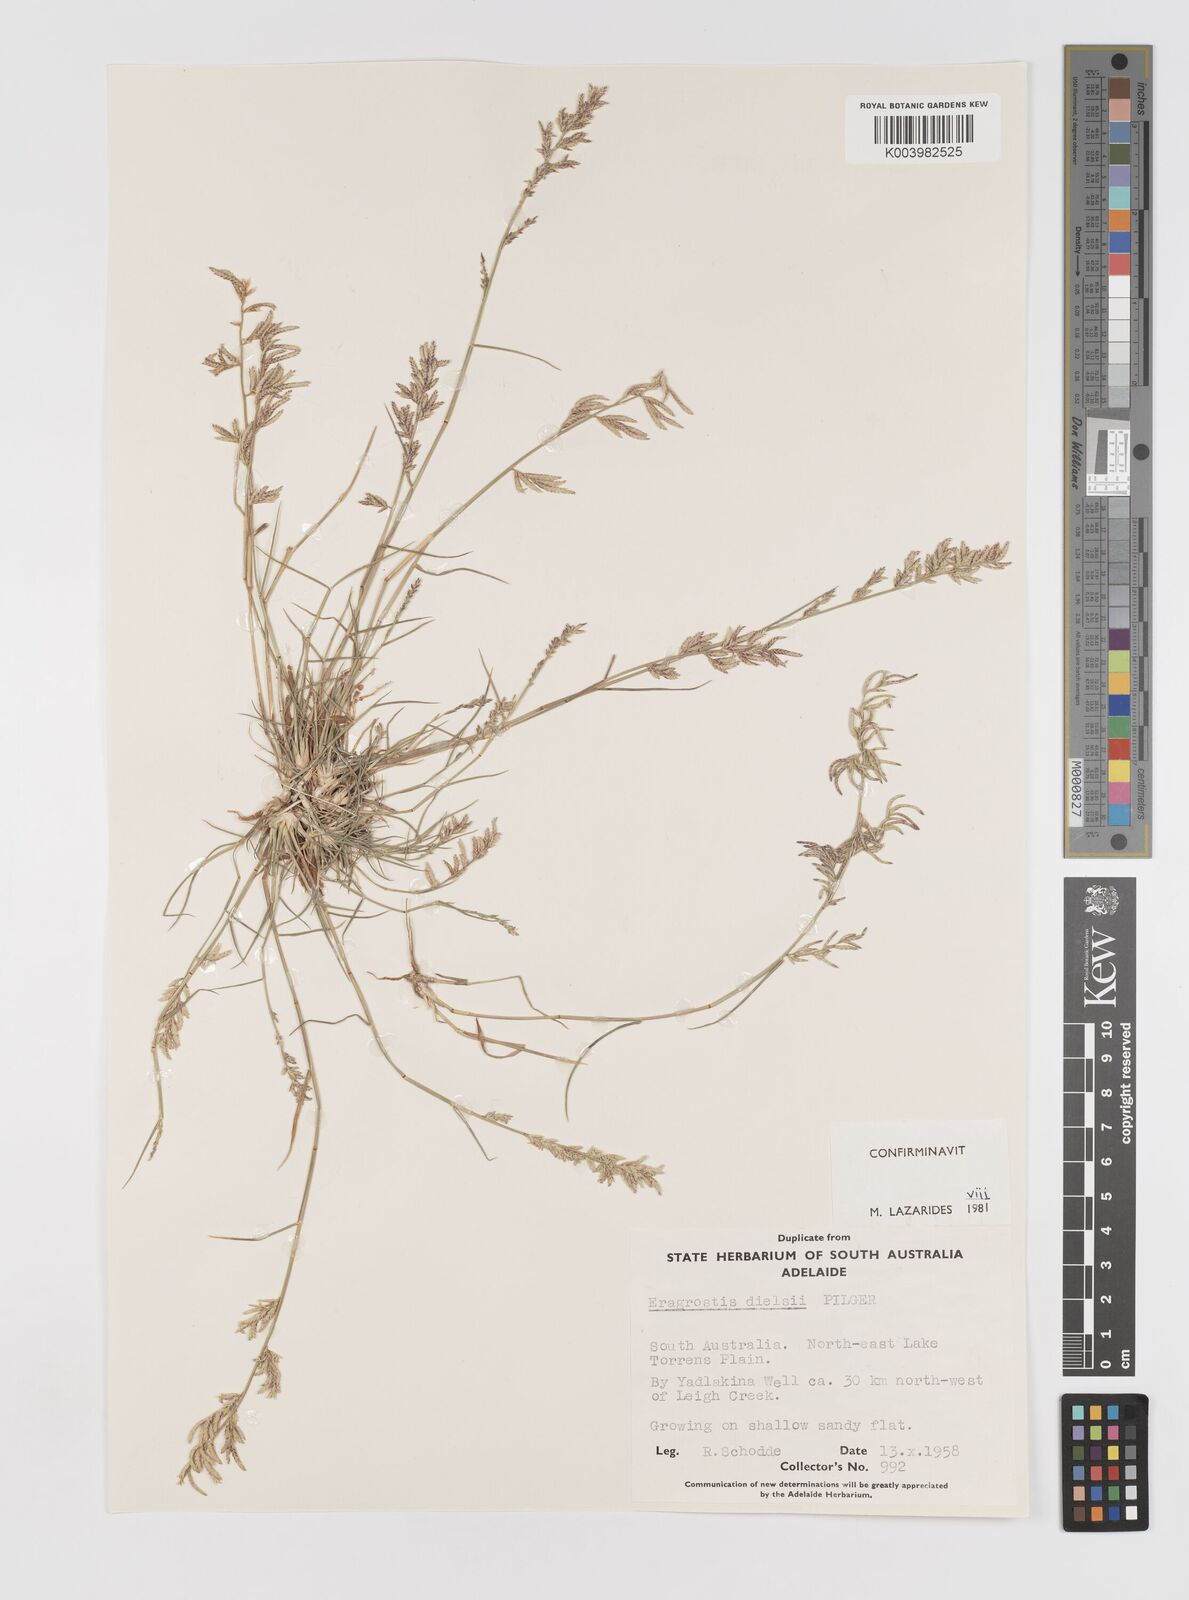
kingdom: Plantae
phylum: Tracheophyta
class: Liliopsida
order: Poales
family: Poaceae
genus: Eragrostis
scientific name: Eragrostis dielsii
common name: Lovegrass
